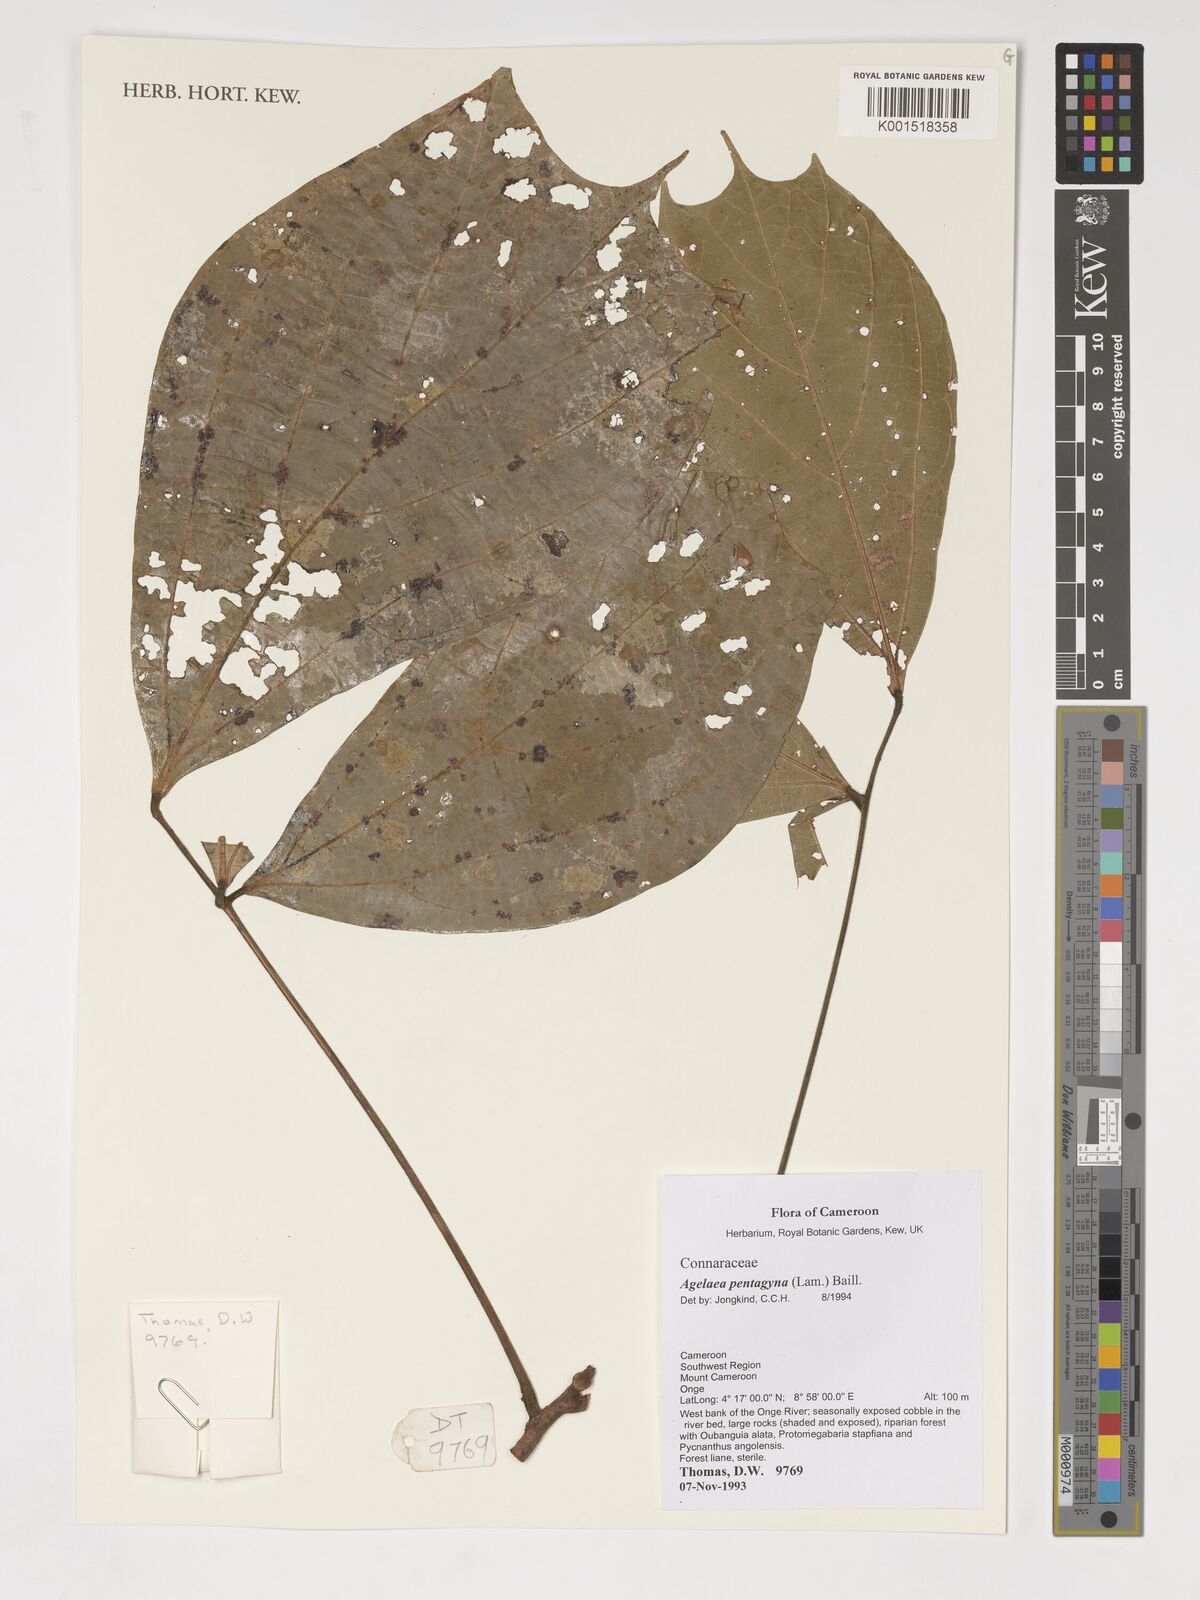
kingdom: Plantae
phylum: Tracheophyta
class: Magnoliopsida
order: Oxalidales
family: Connaraceae
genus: Agelaea
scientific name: Agelaea pentagyna
